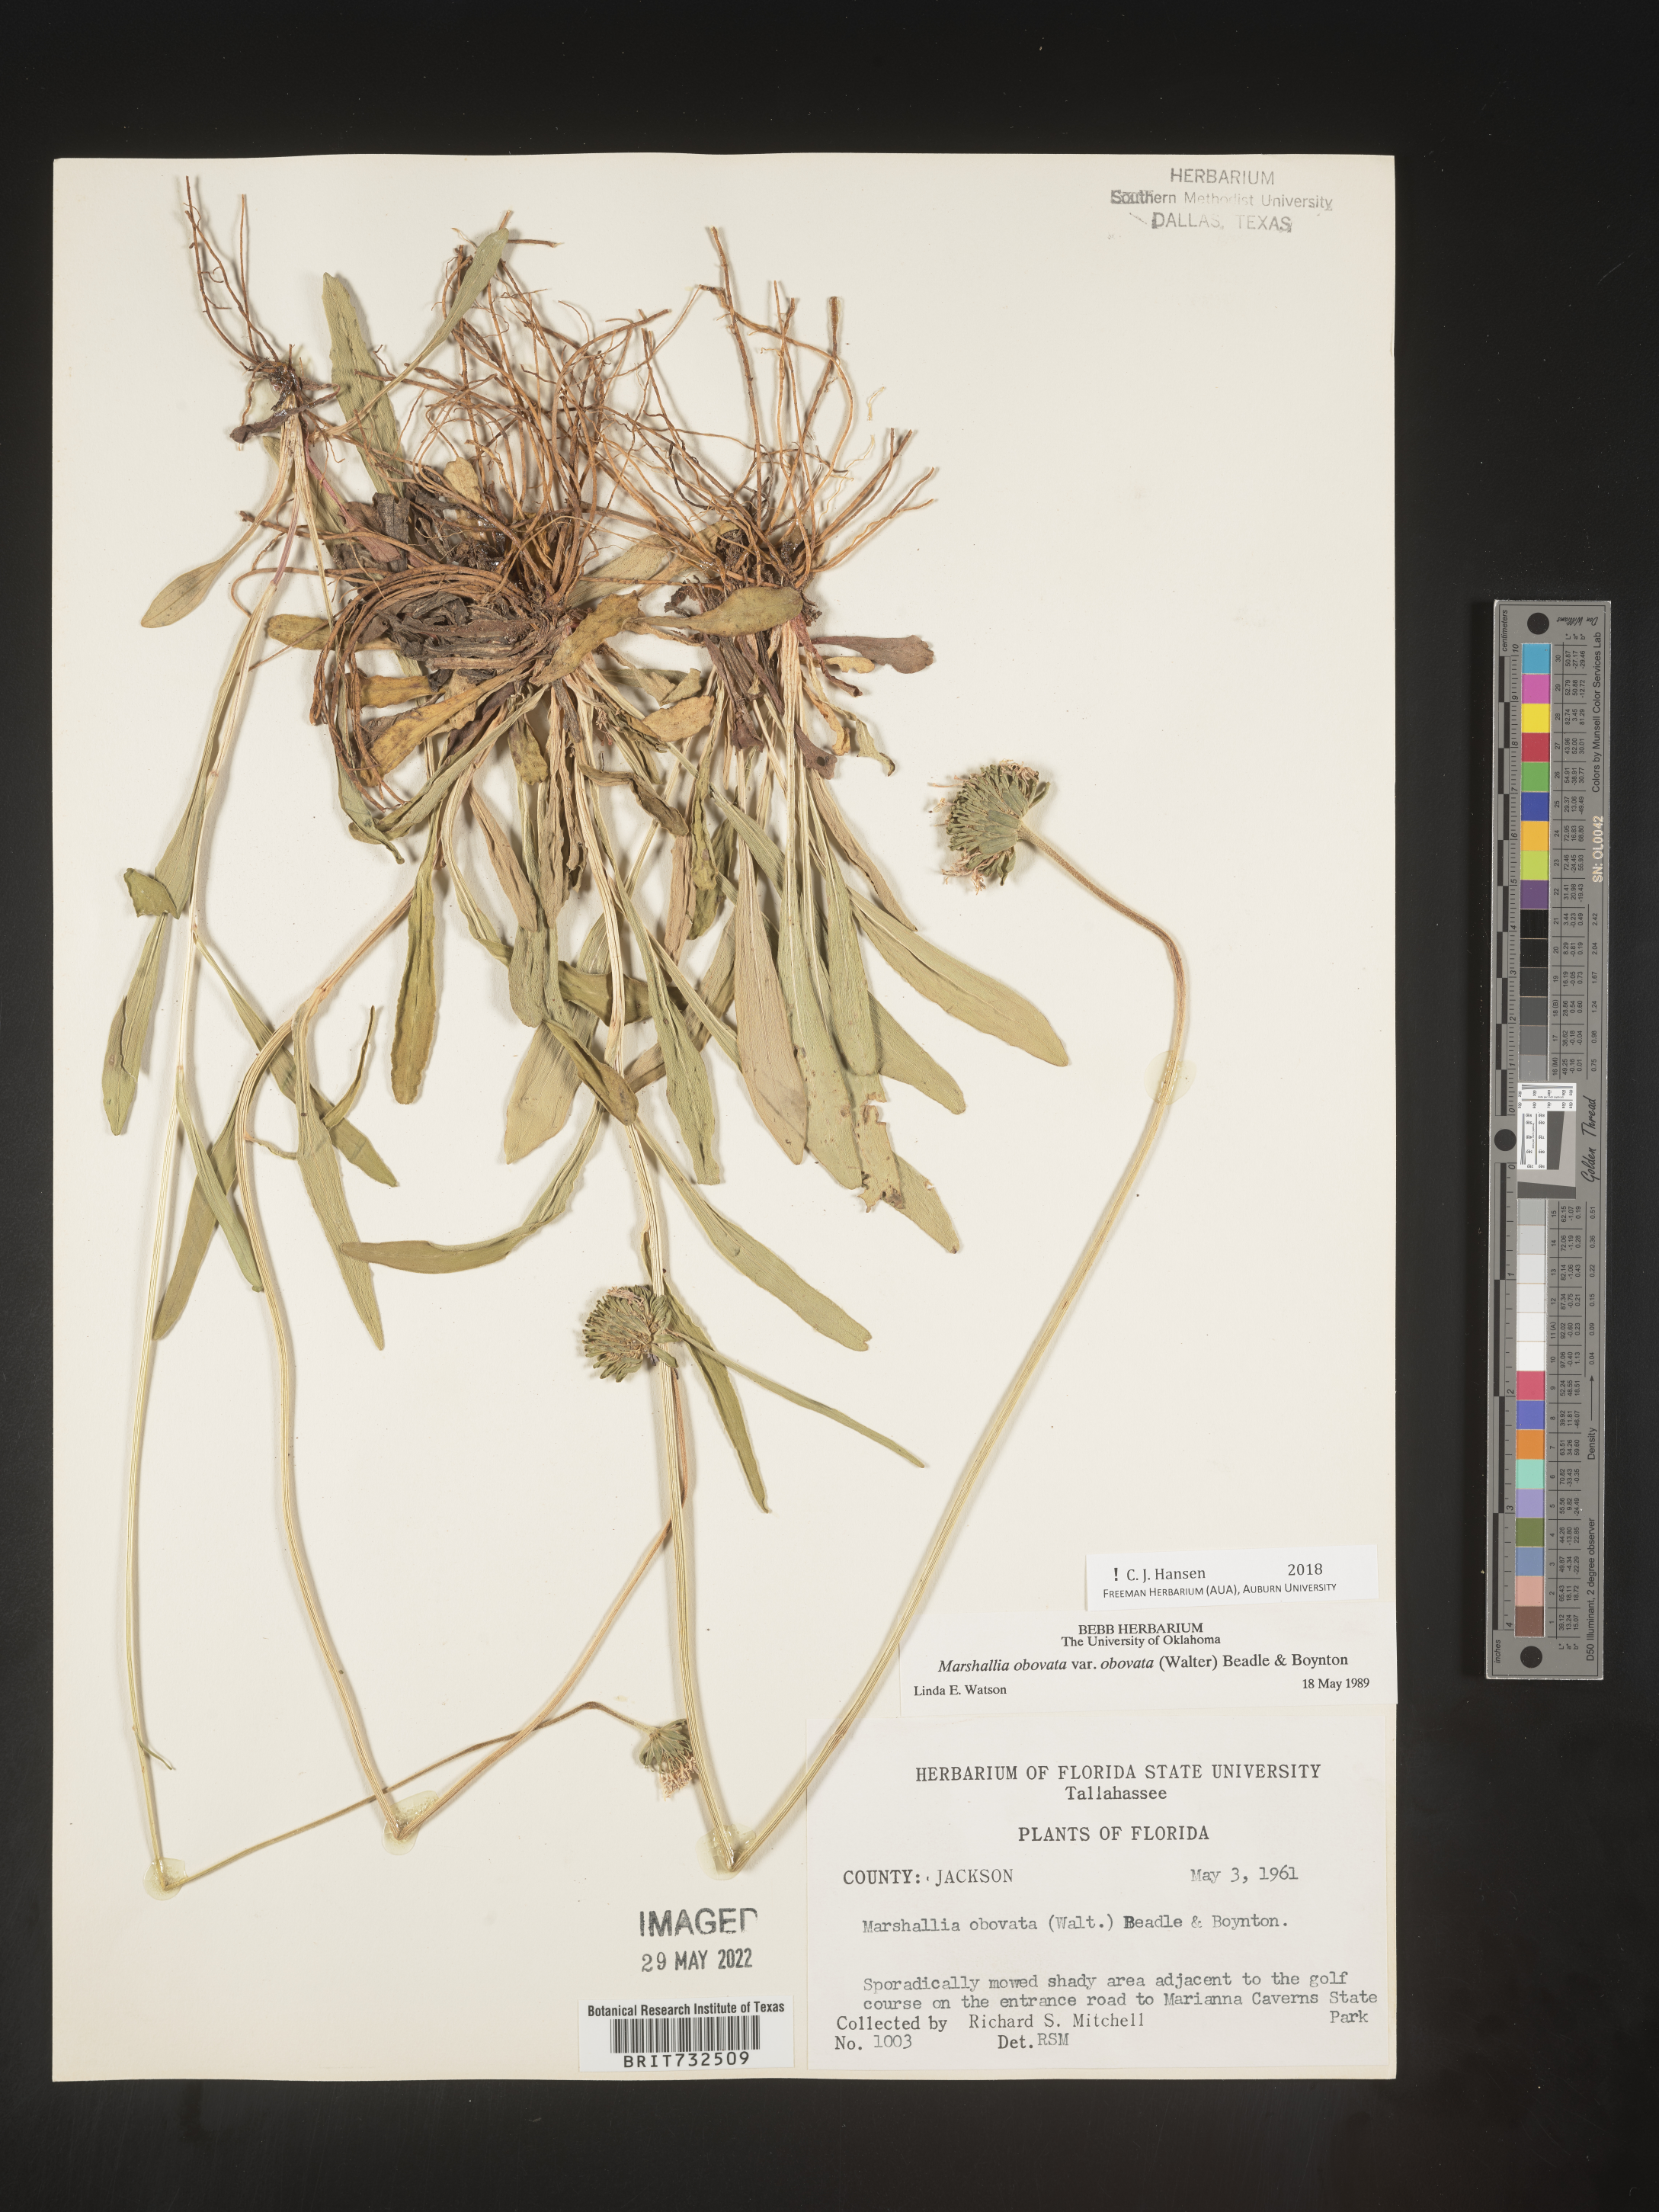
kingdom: Plantae
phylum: Tracheophyta
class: Magnoliopsida
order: Asterales
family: Asteraceae
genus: Marshallia
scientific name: Marshallia obovata
